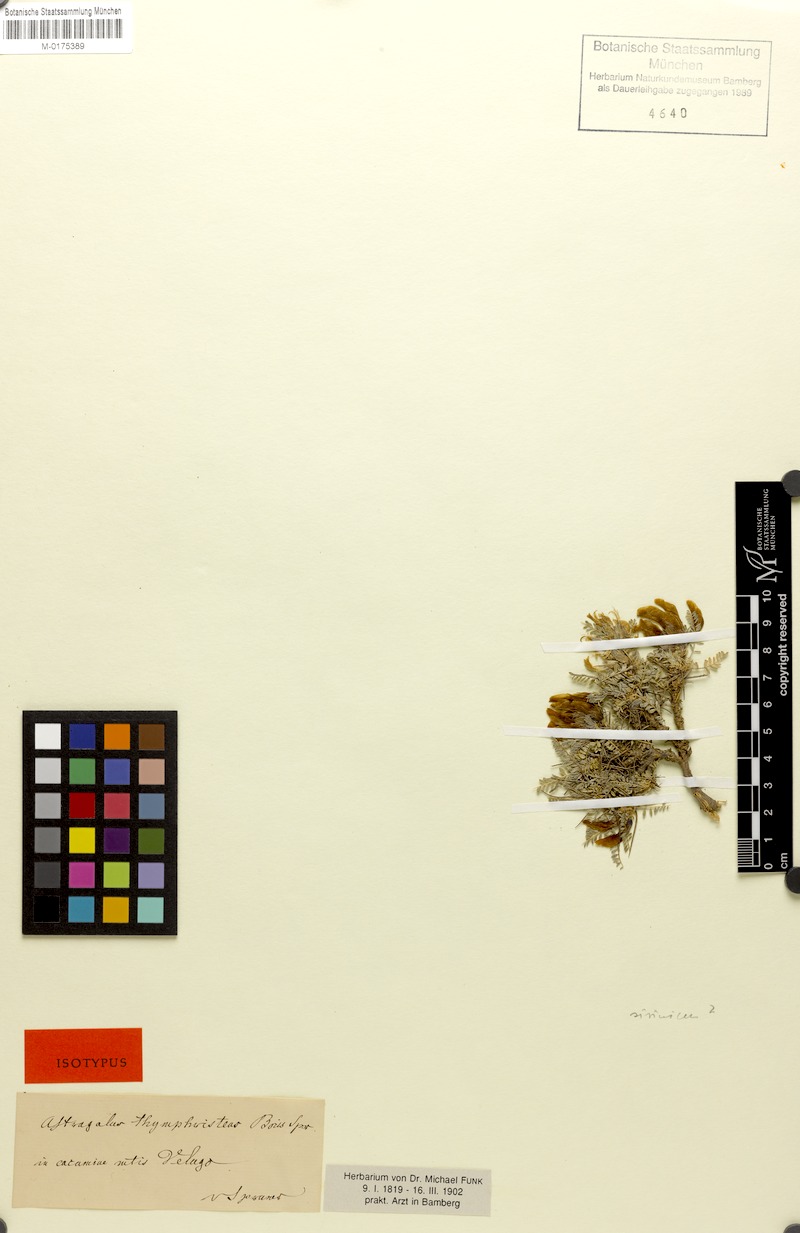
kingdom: Plantae
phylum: Tracheophyta
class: Magnoliopsida
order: Fabales
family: Fabaceae
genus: Astragalus
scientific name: Astragalus sirinicus
